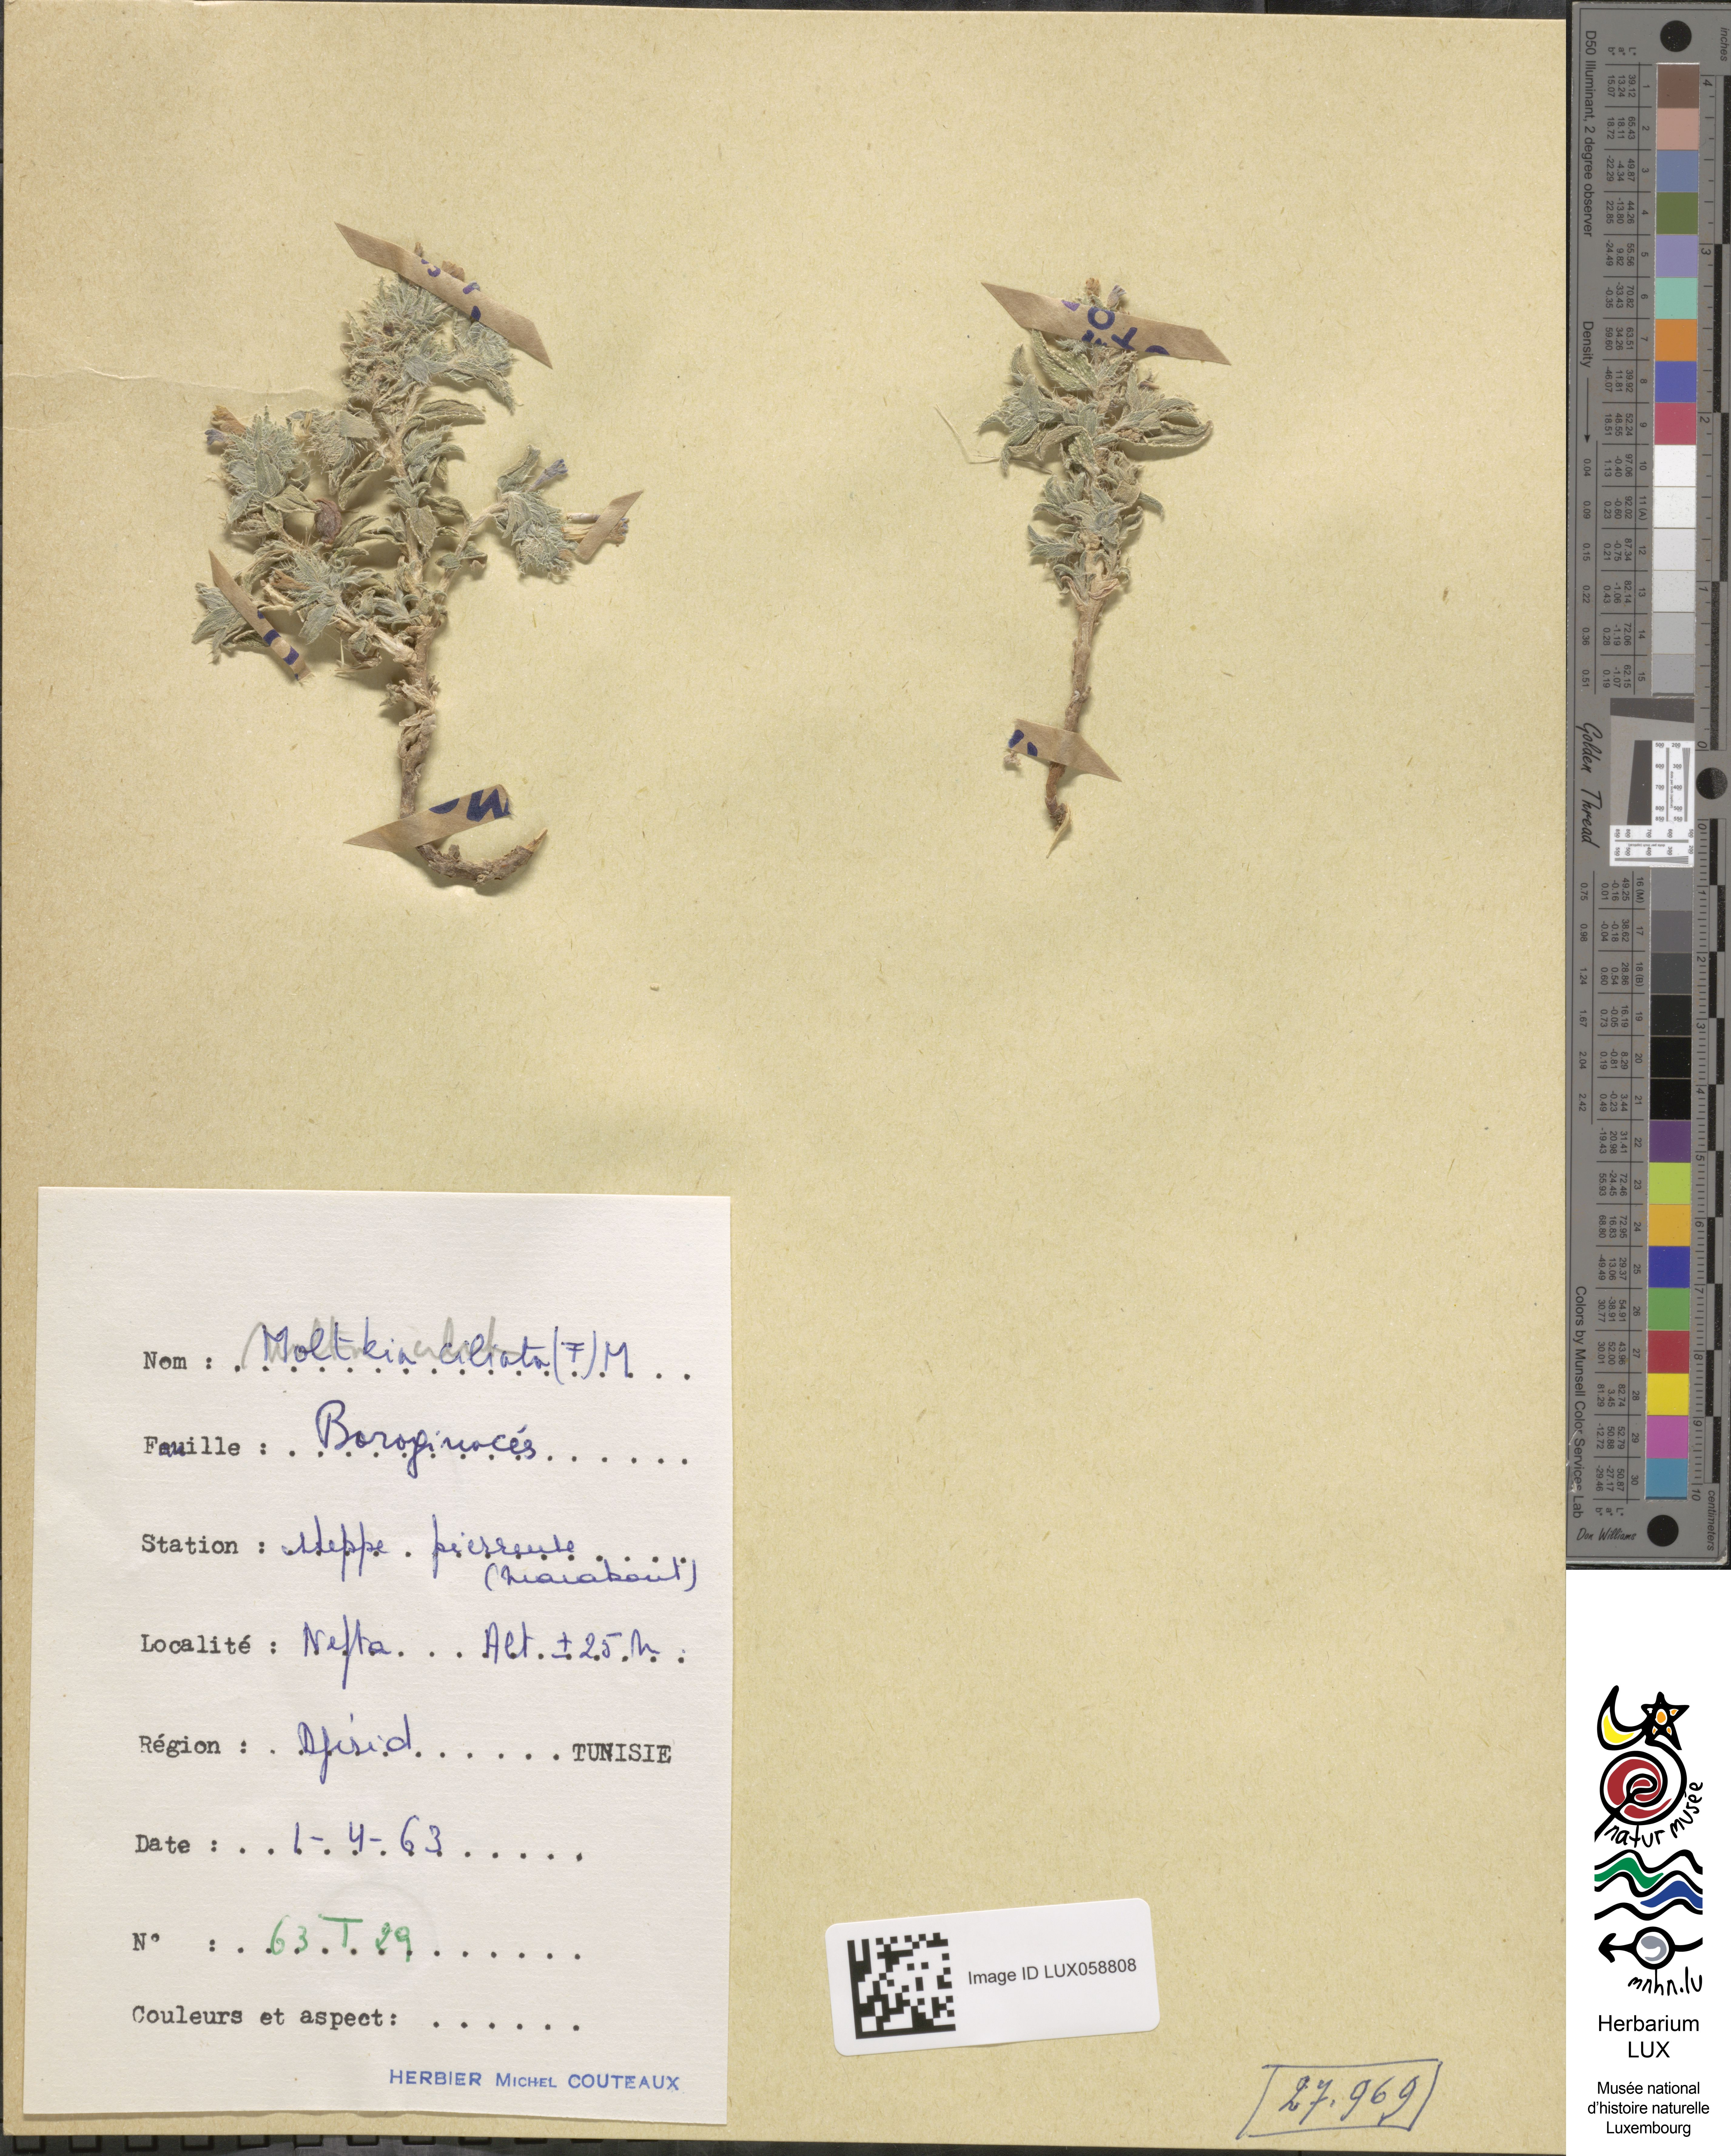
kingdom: Plantae
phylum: Tracheophyta
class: Magnoliopsida
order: Boraginales
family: Boraginaceae
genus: Moltkiopsis
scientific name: Moltkiopsis ciliata
